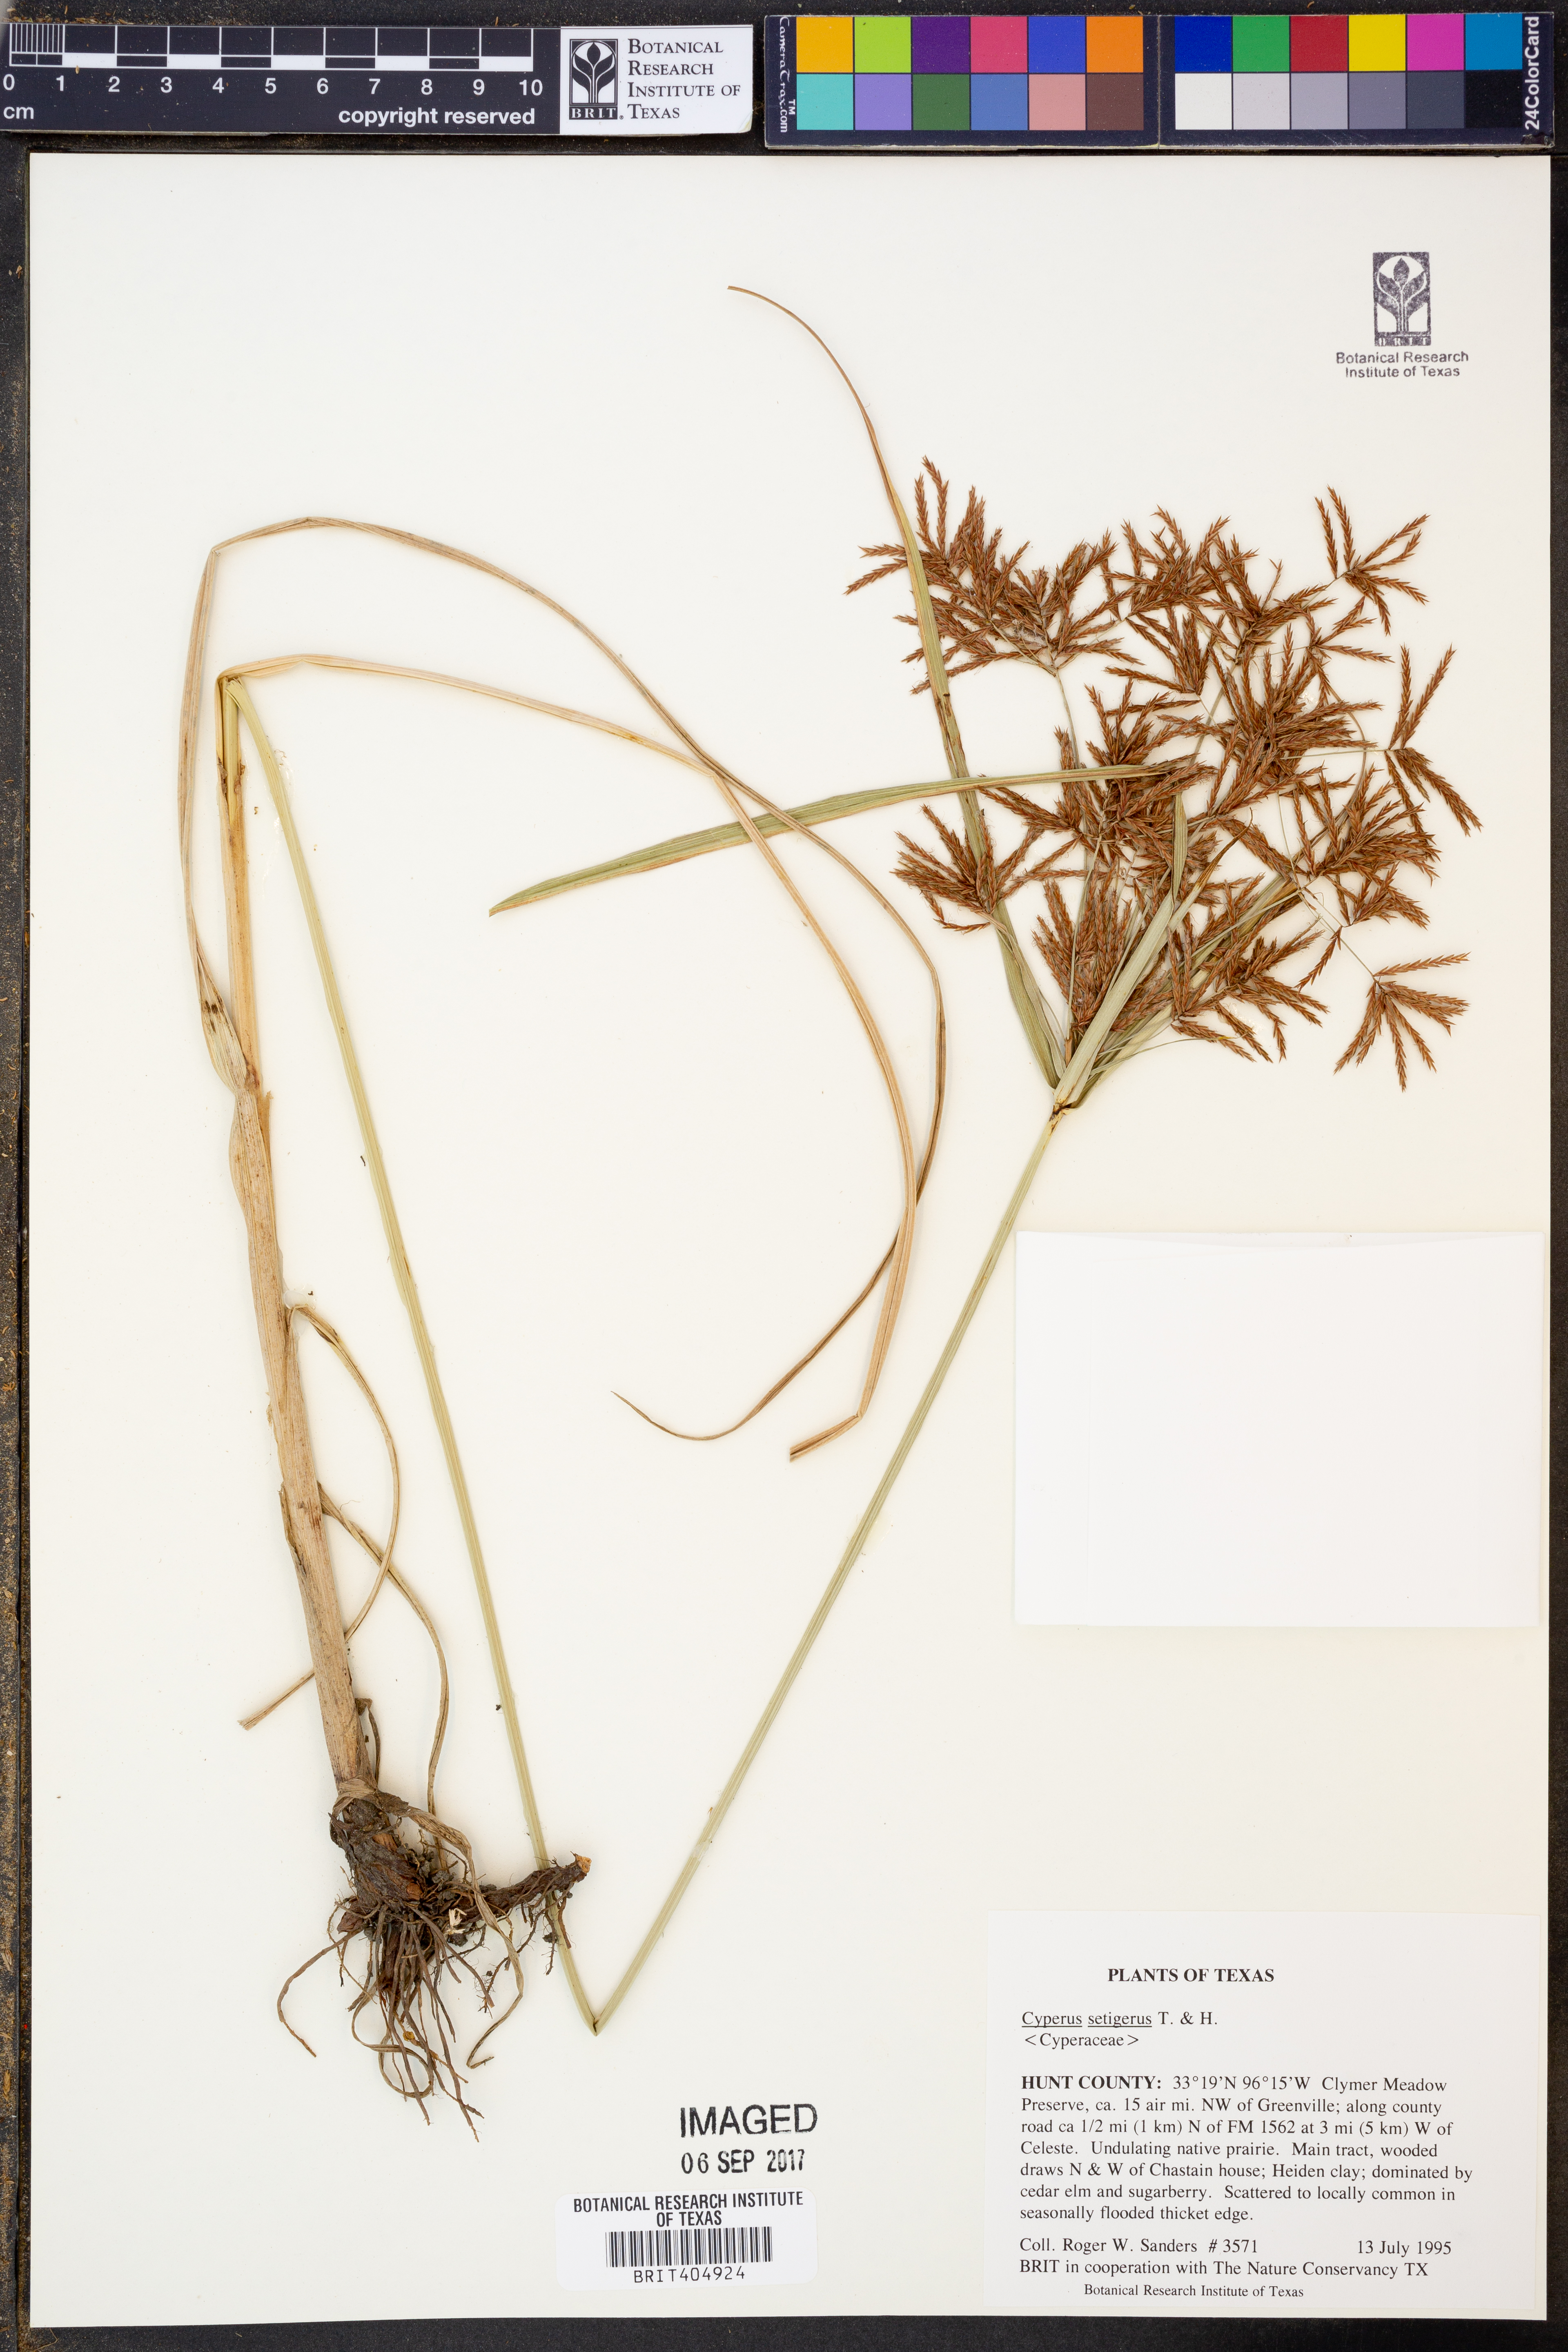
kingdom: Plantae
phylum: Tracheophyta
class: Liliopsida
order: Poales
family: Cyperaceae
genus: Cyperus
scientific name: Cyperus setigerus
